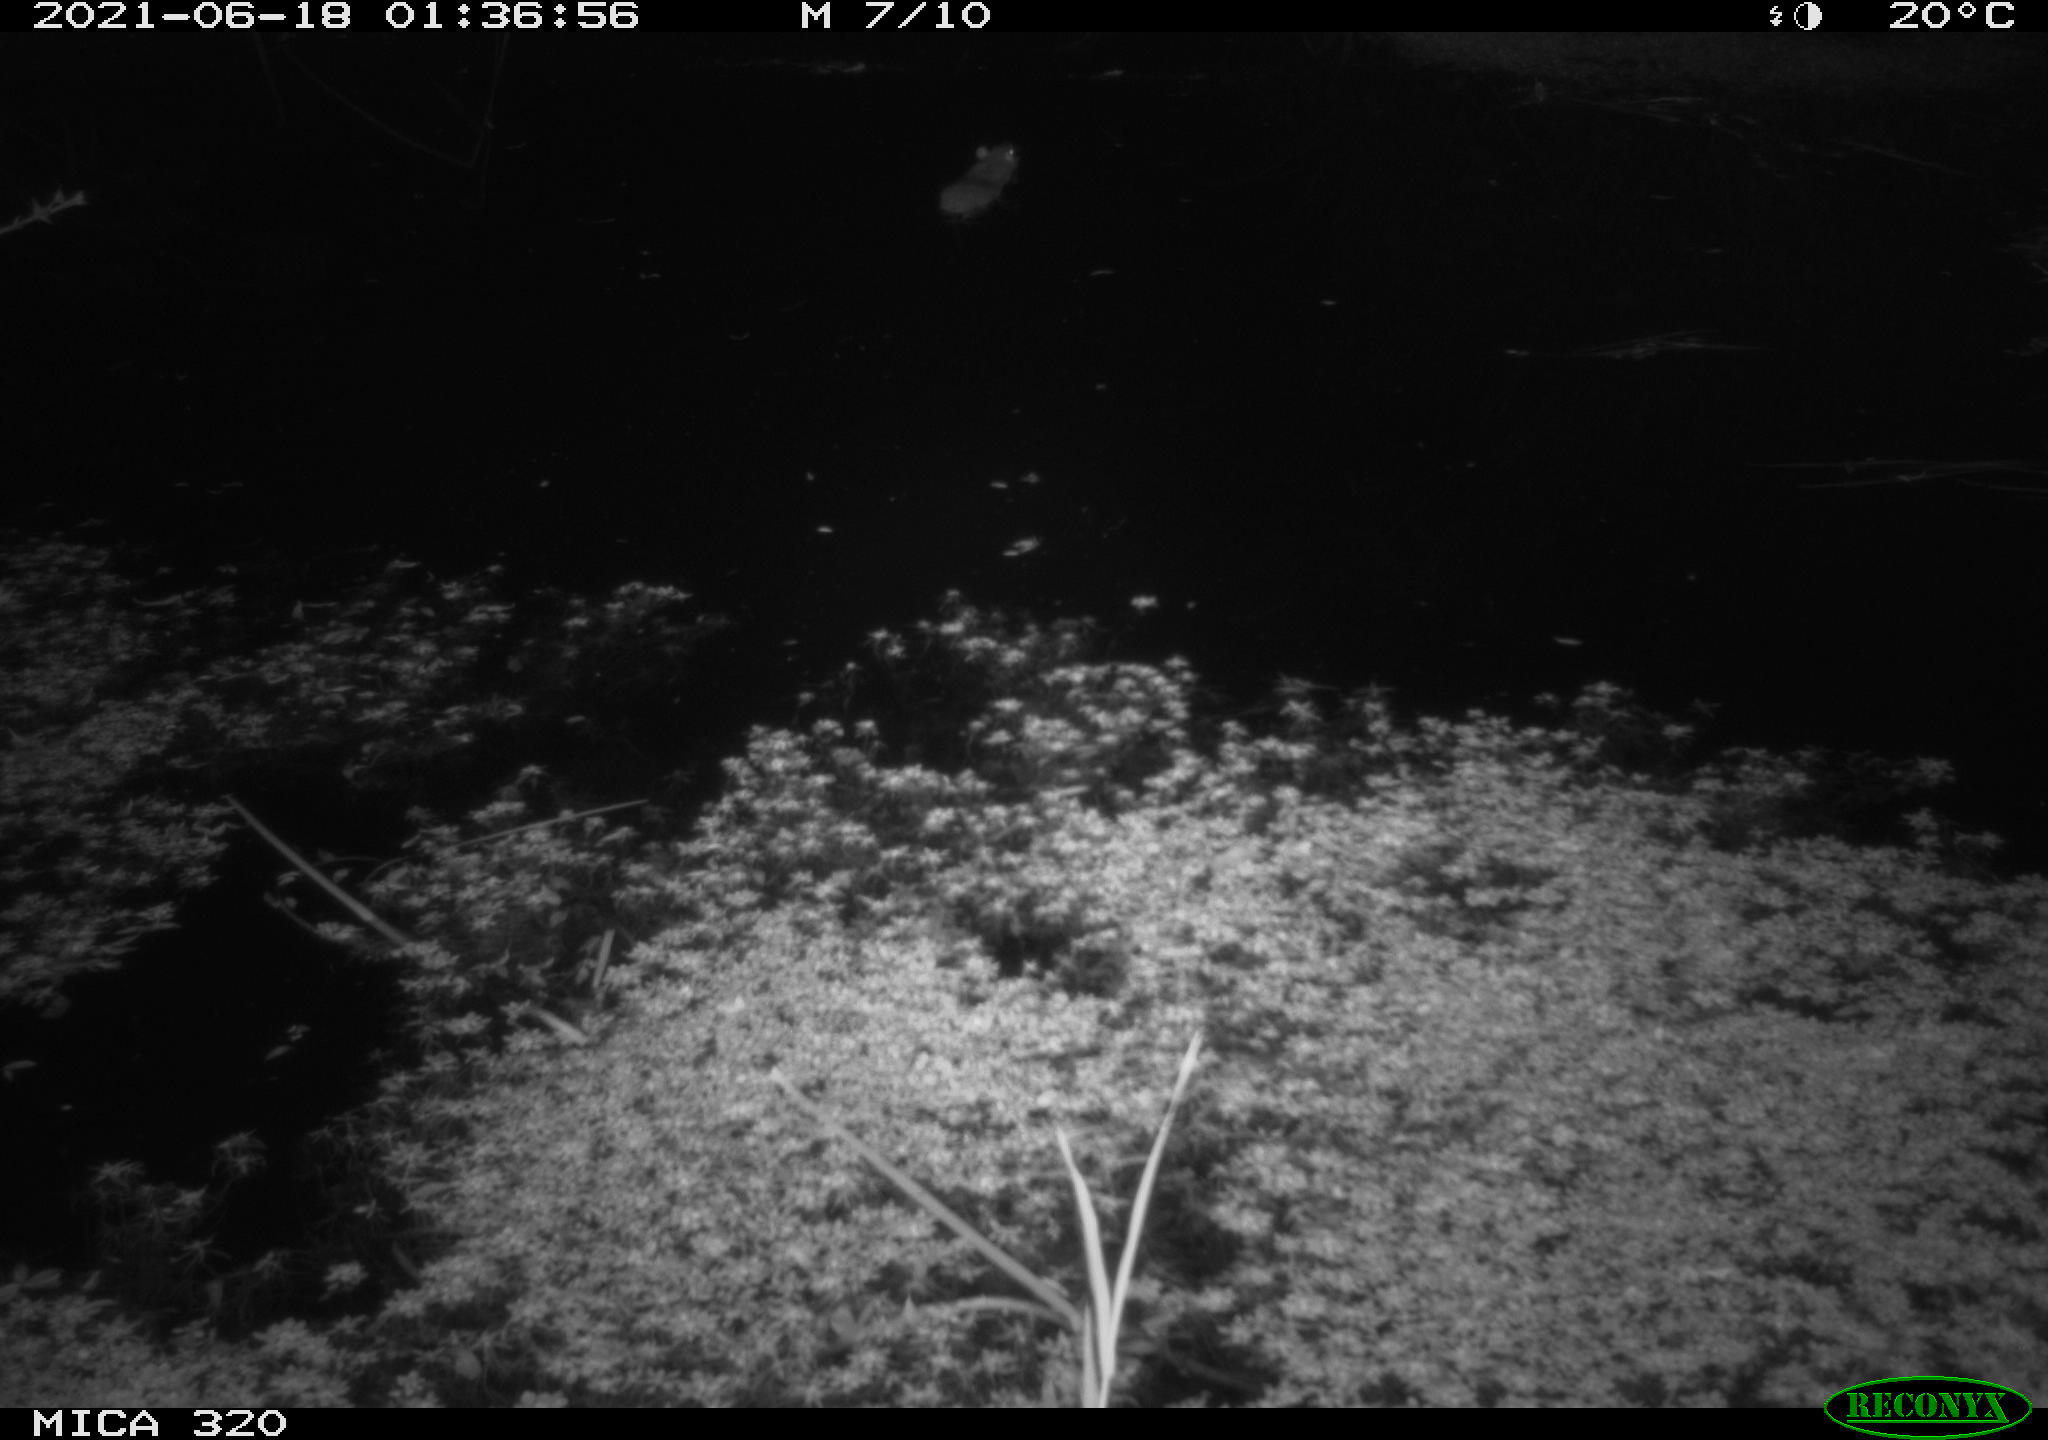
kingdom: Animalia
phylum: Chordata
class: Mammalia
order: Rodentia
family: Muridae
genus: Rattus
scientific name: Rattus norvegicus
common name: Brown rat
